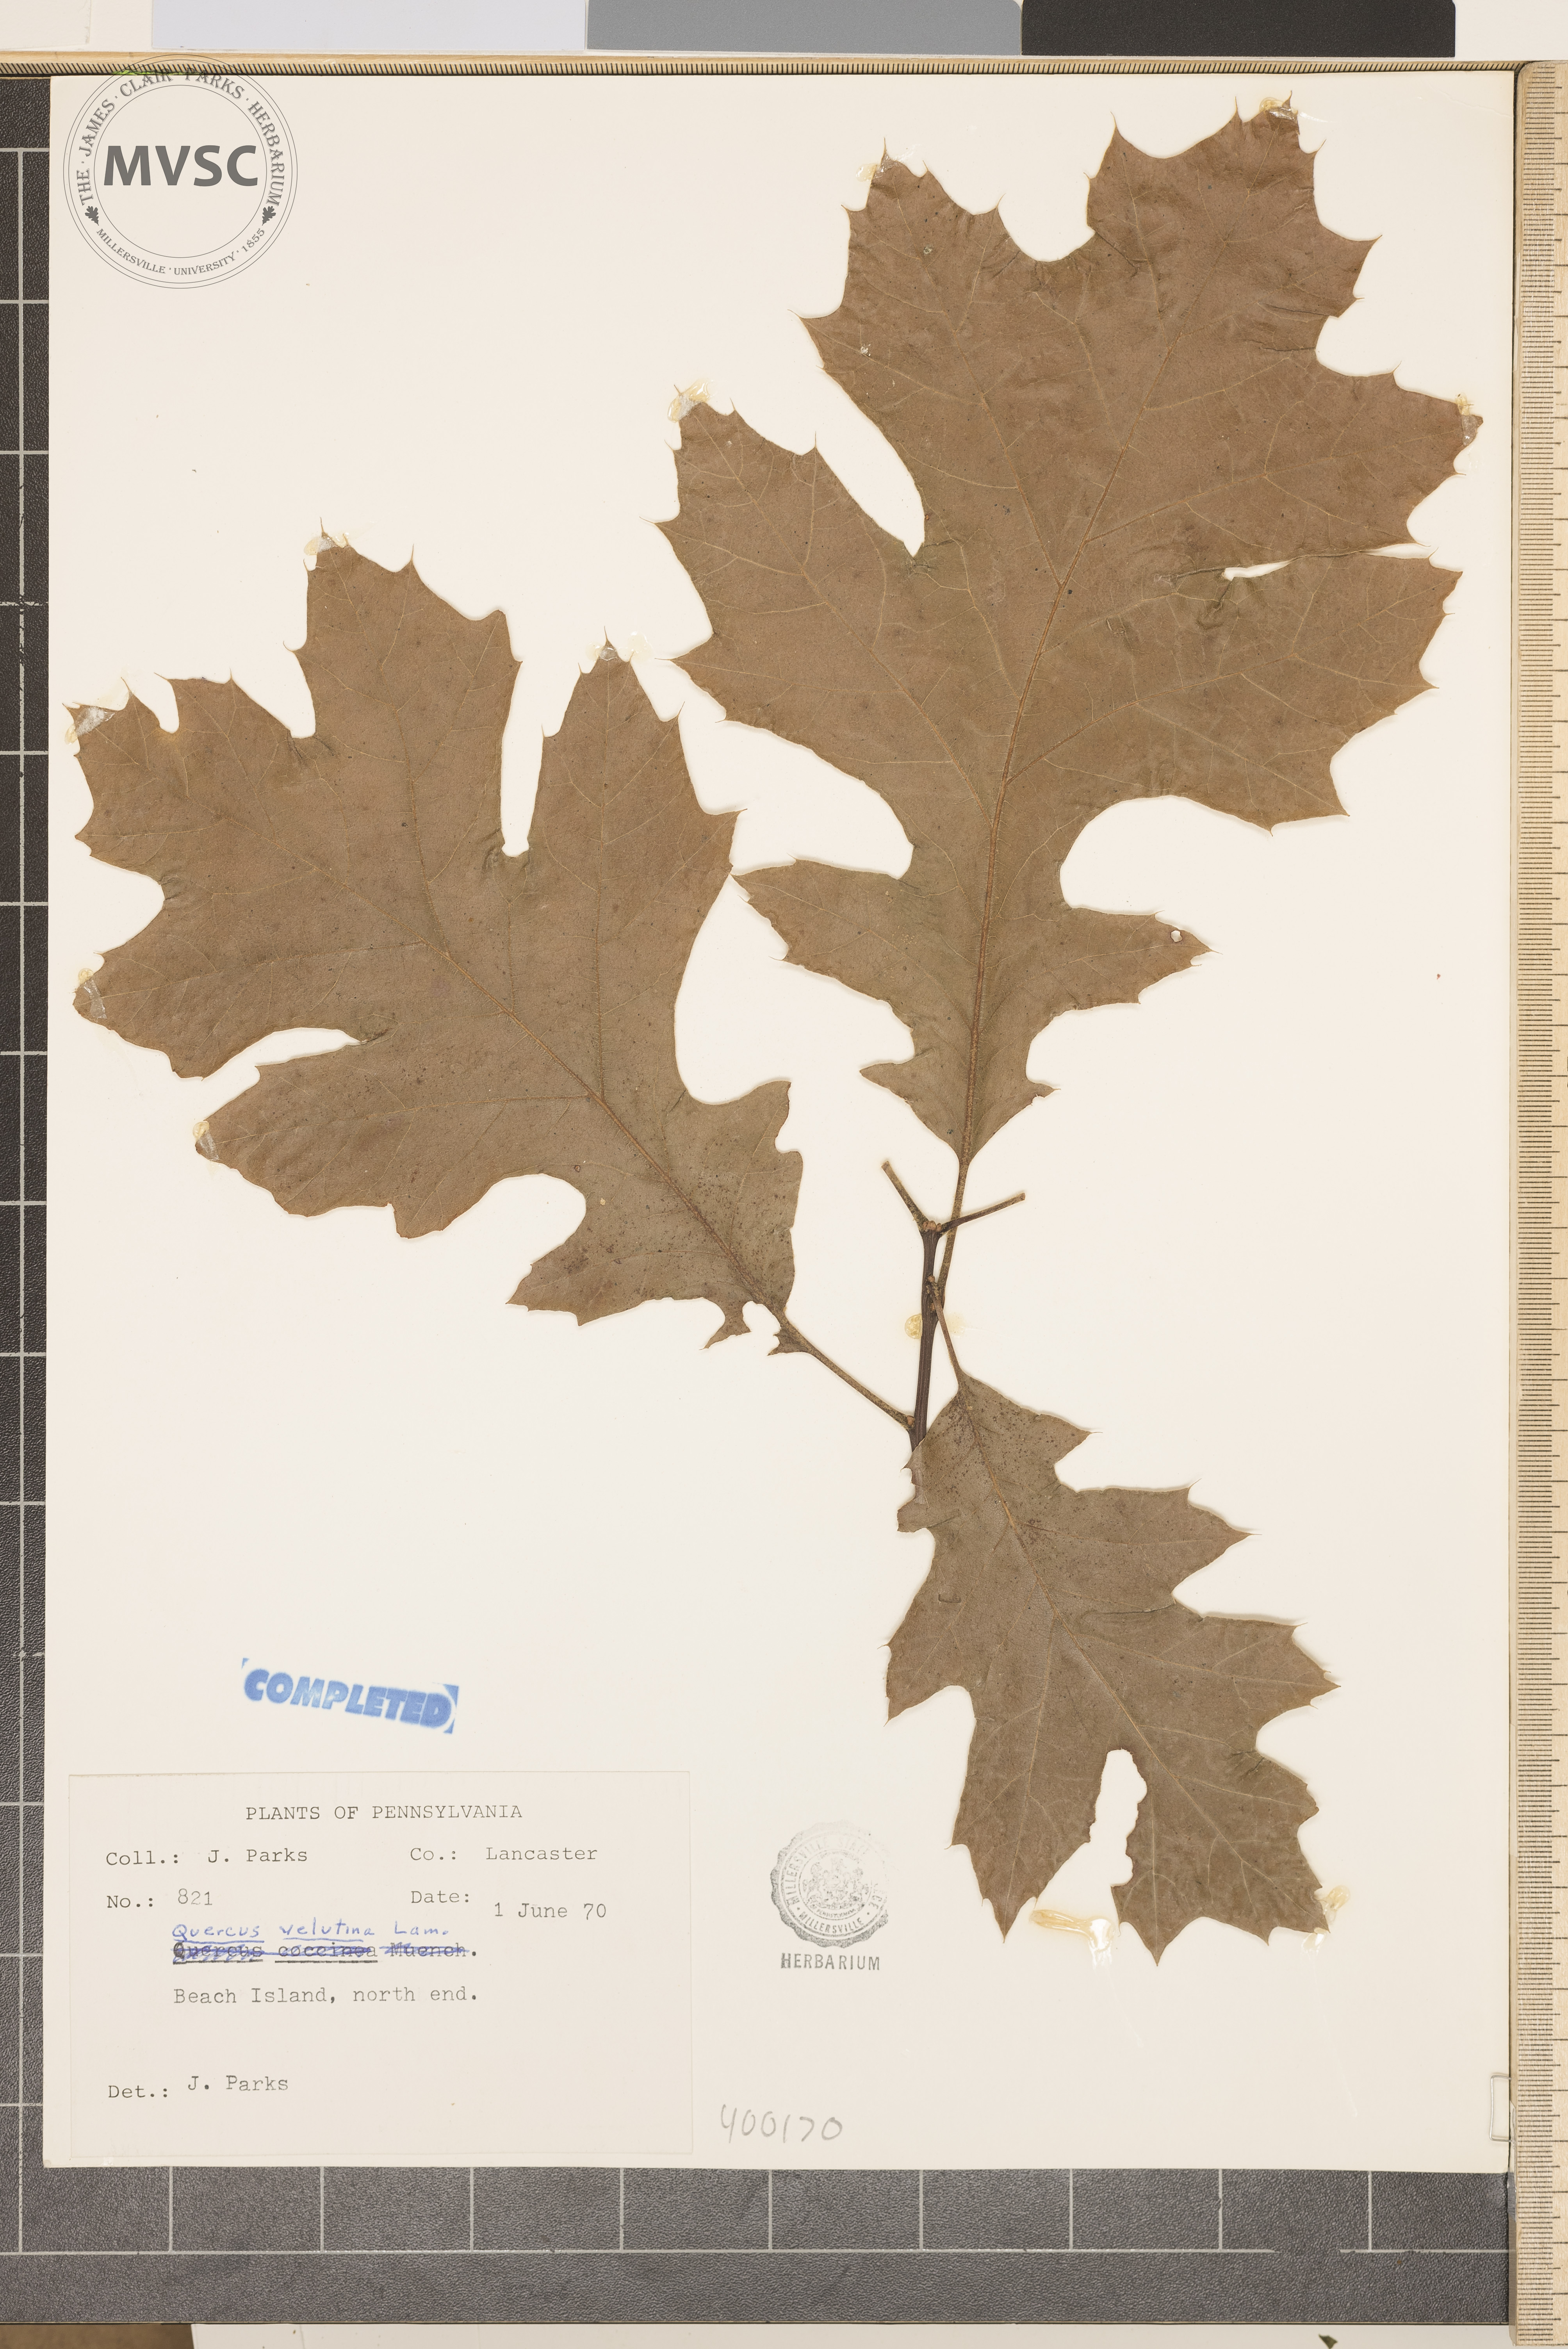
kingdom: Plantae
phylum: Tracheophyta
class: Magnoliopsida
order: Fagales
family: Fagaceae
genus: Quercus
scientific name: Quercus velutina
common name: black oak
